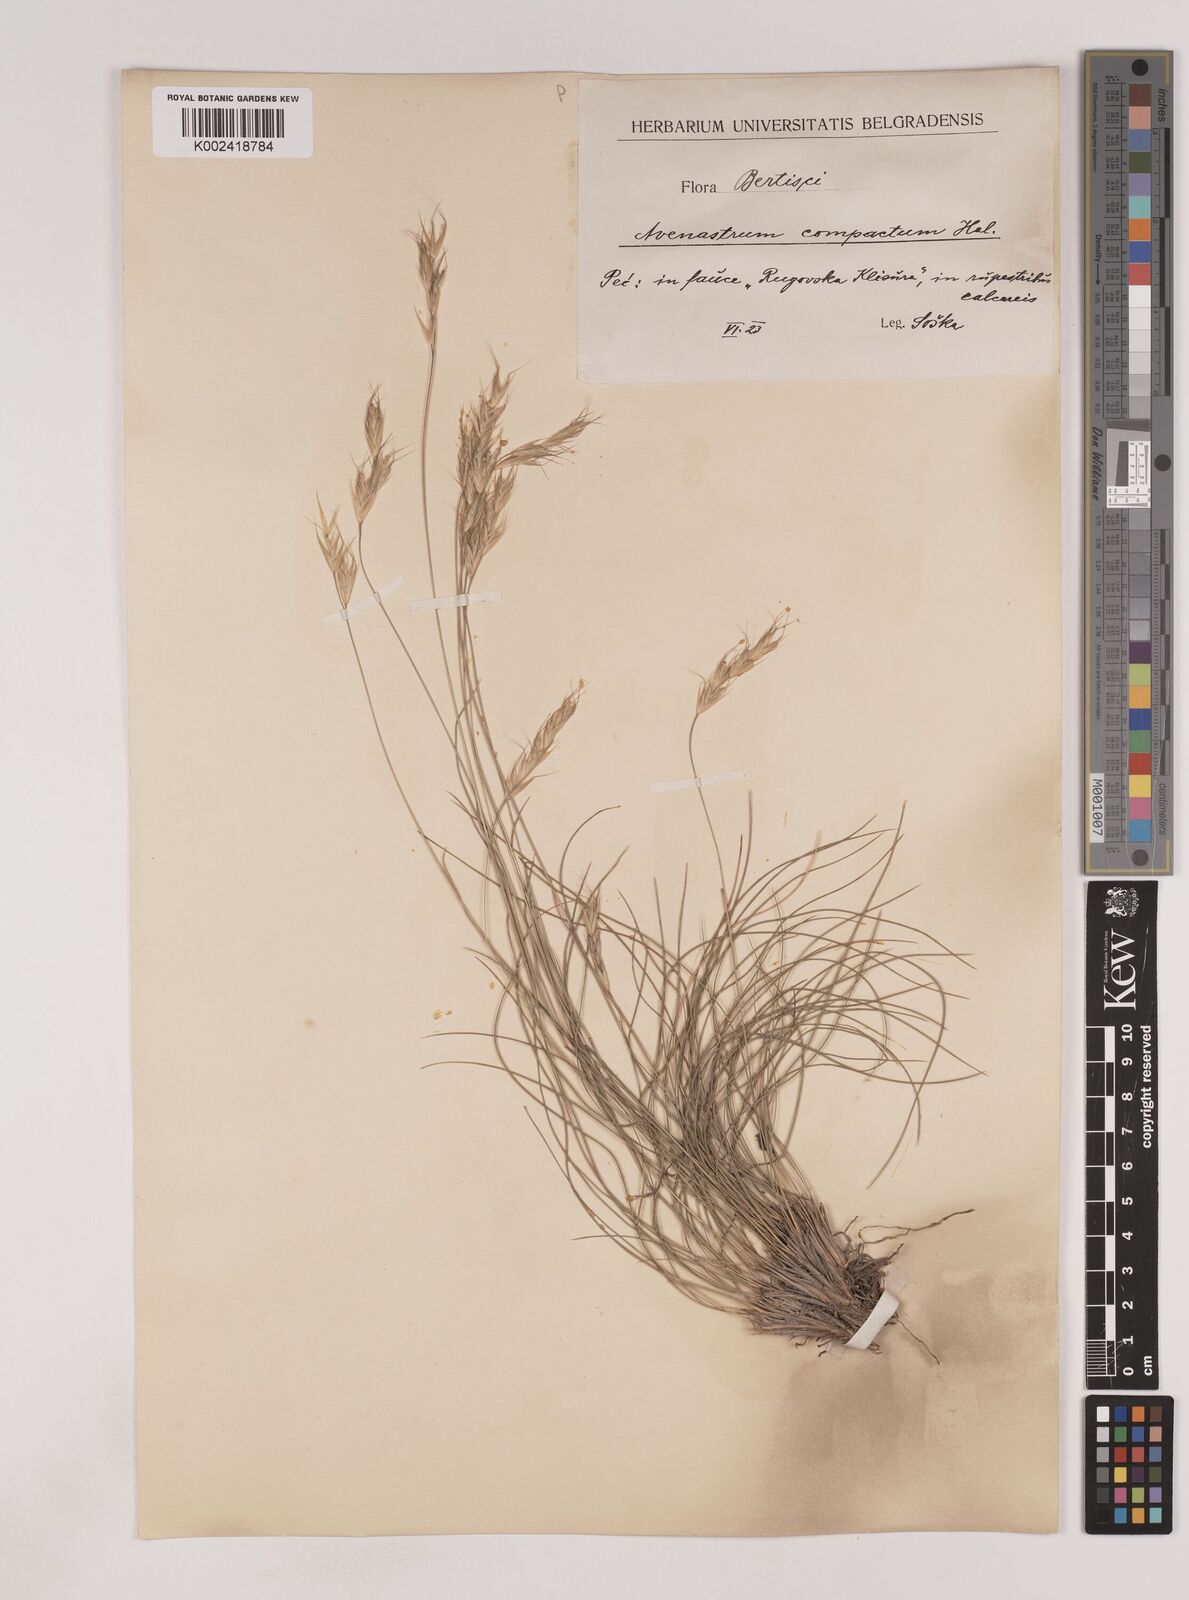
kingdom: Plantae
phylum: Tracheophyta
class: Liliopsida
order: Poales
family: Poaceae
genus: Danthoniastrum
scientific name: Danthoniastrum compactum
